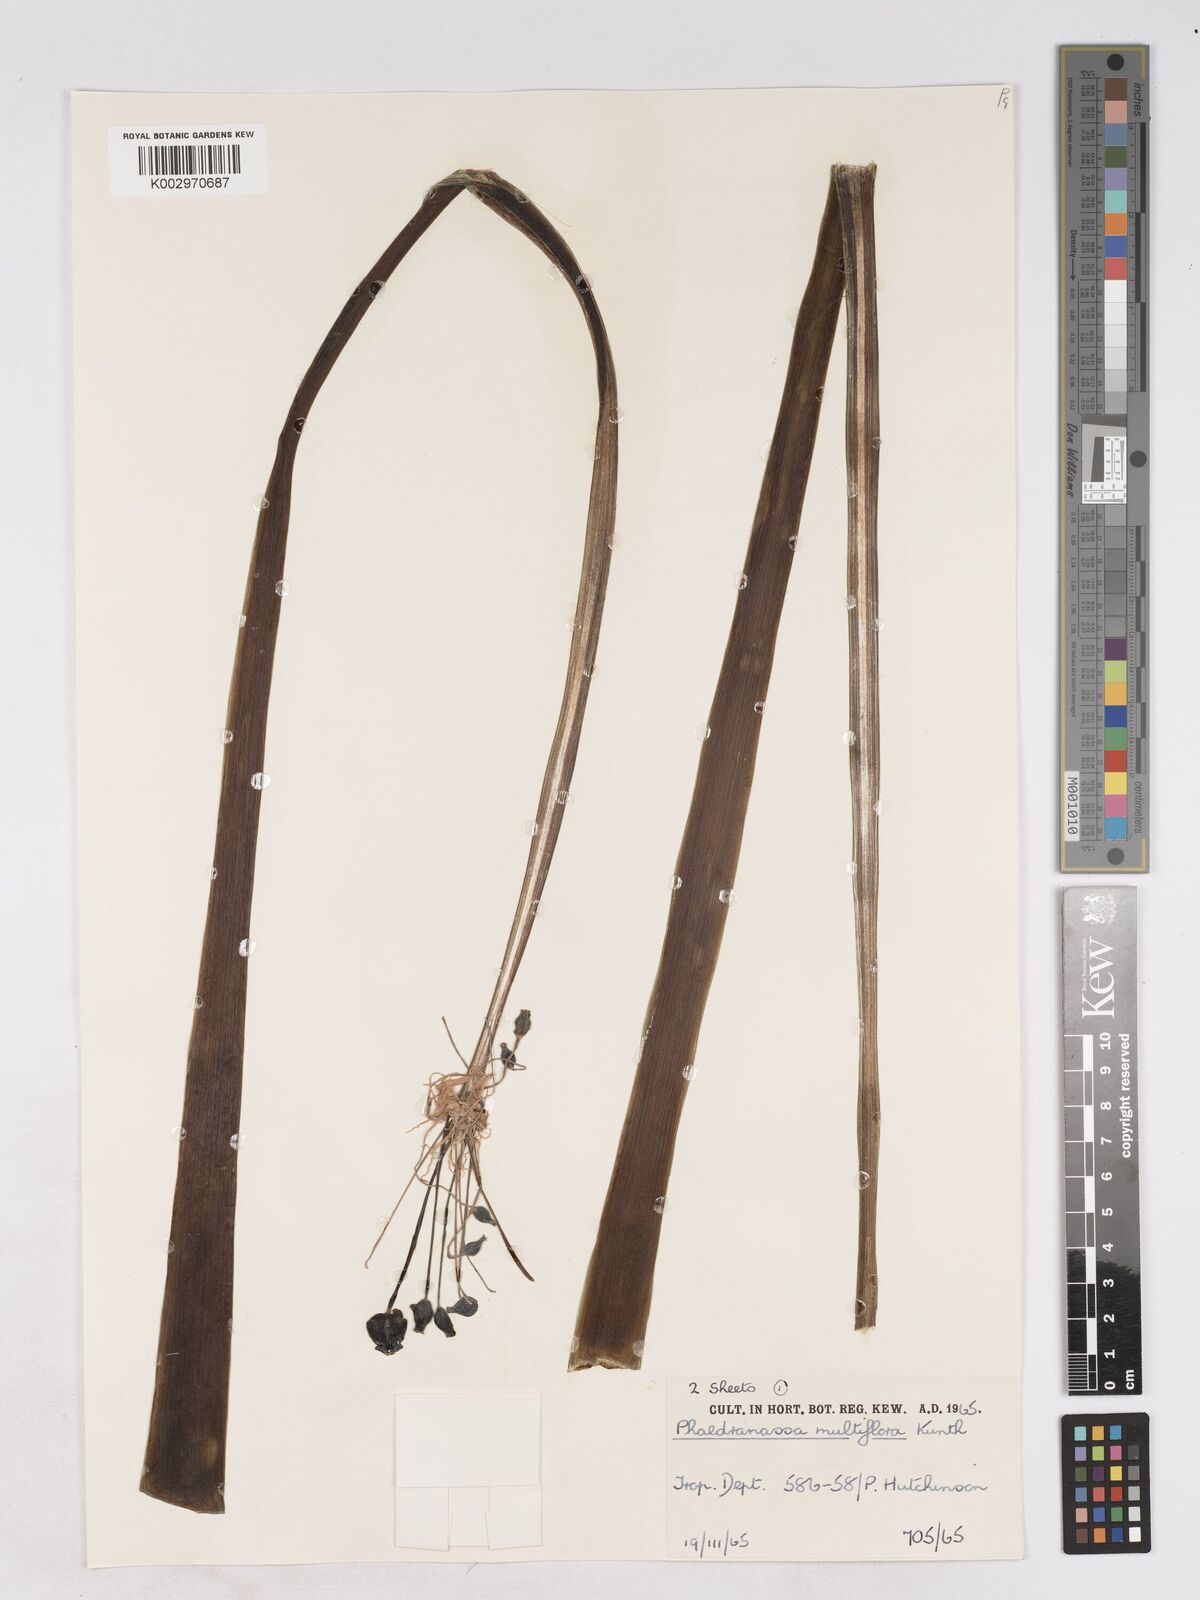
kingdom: Plantae
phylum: Tracheophyta
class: Liliopsida
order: Asparagales
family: Amaryllidaceae
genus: Rauhia
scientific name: Rauhia multiflora
